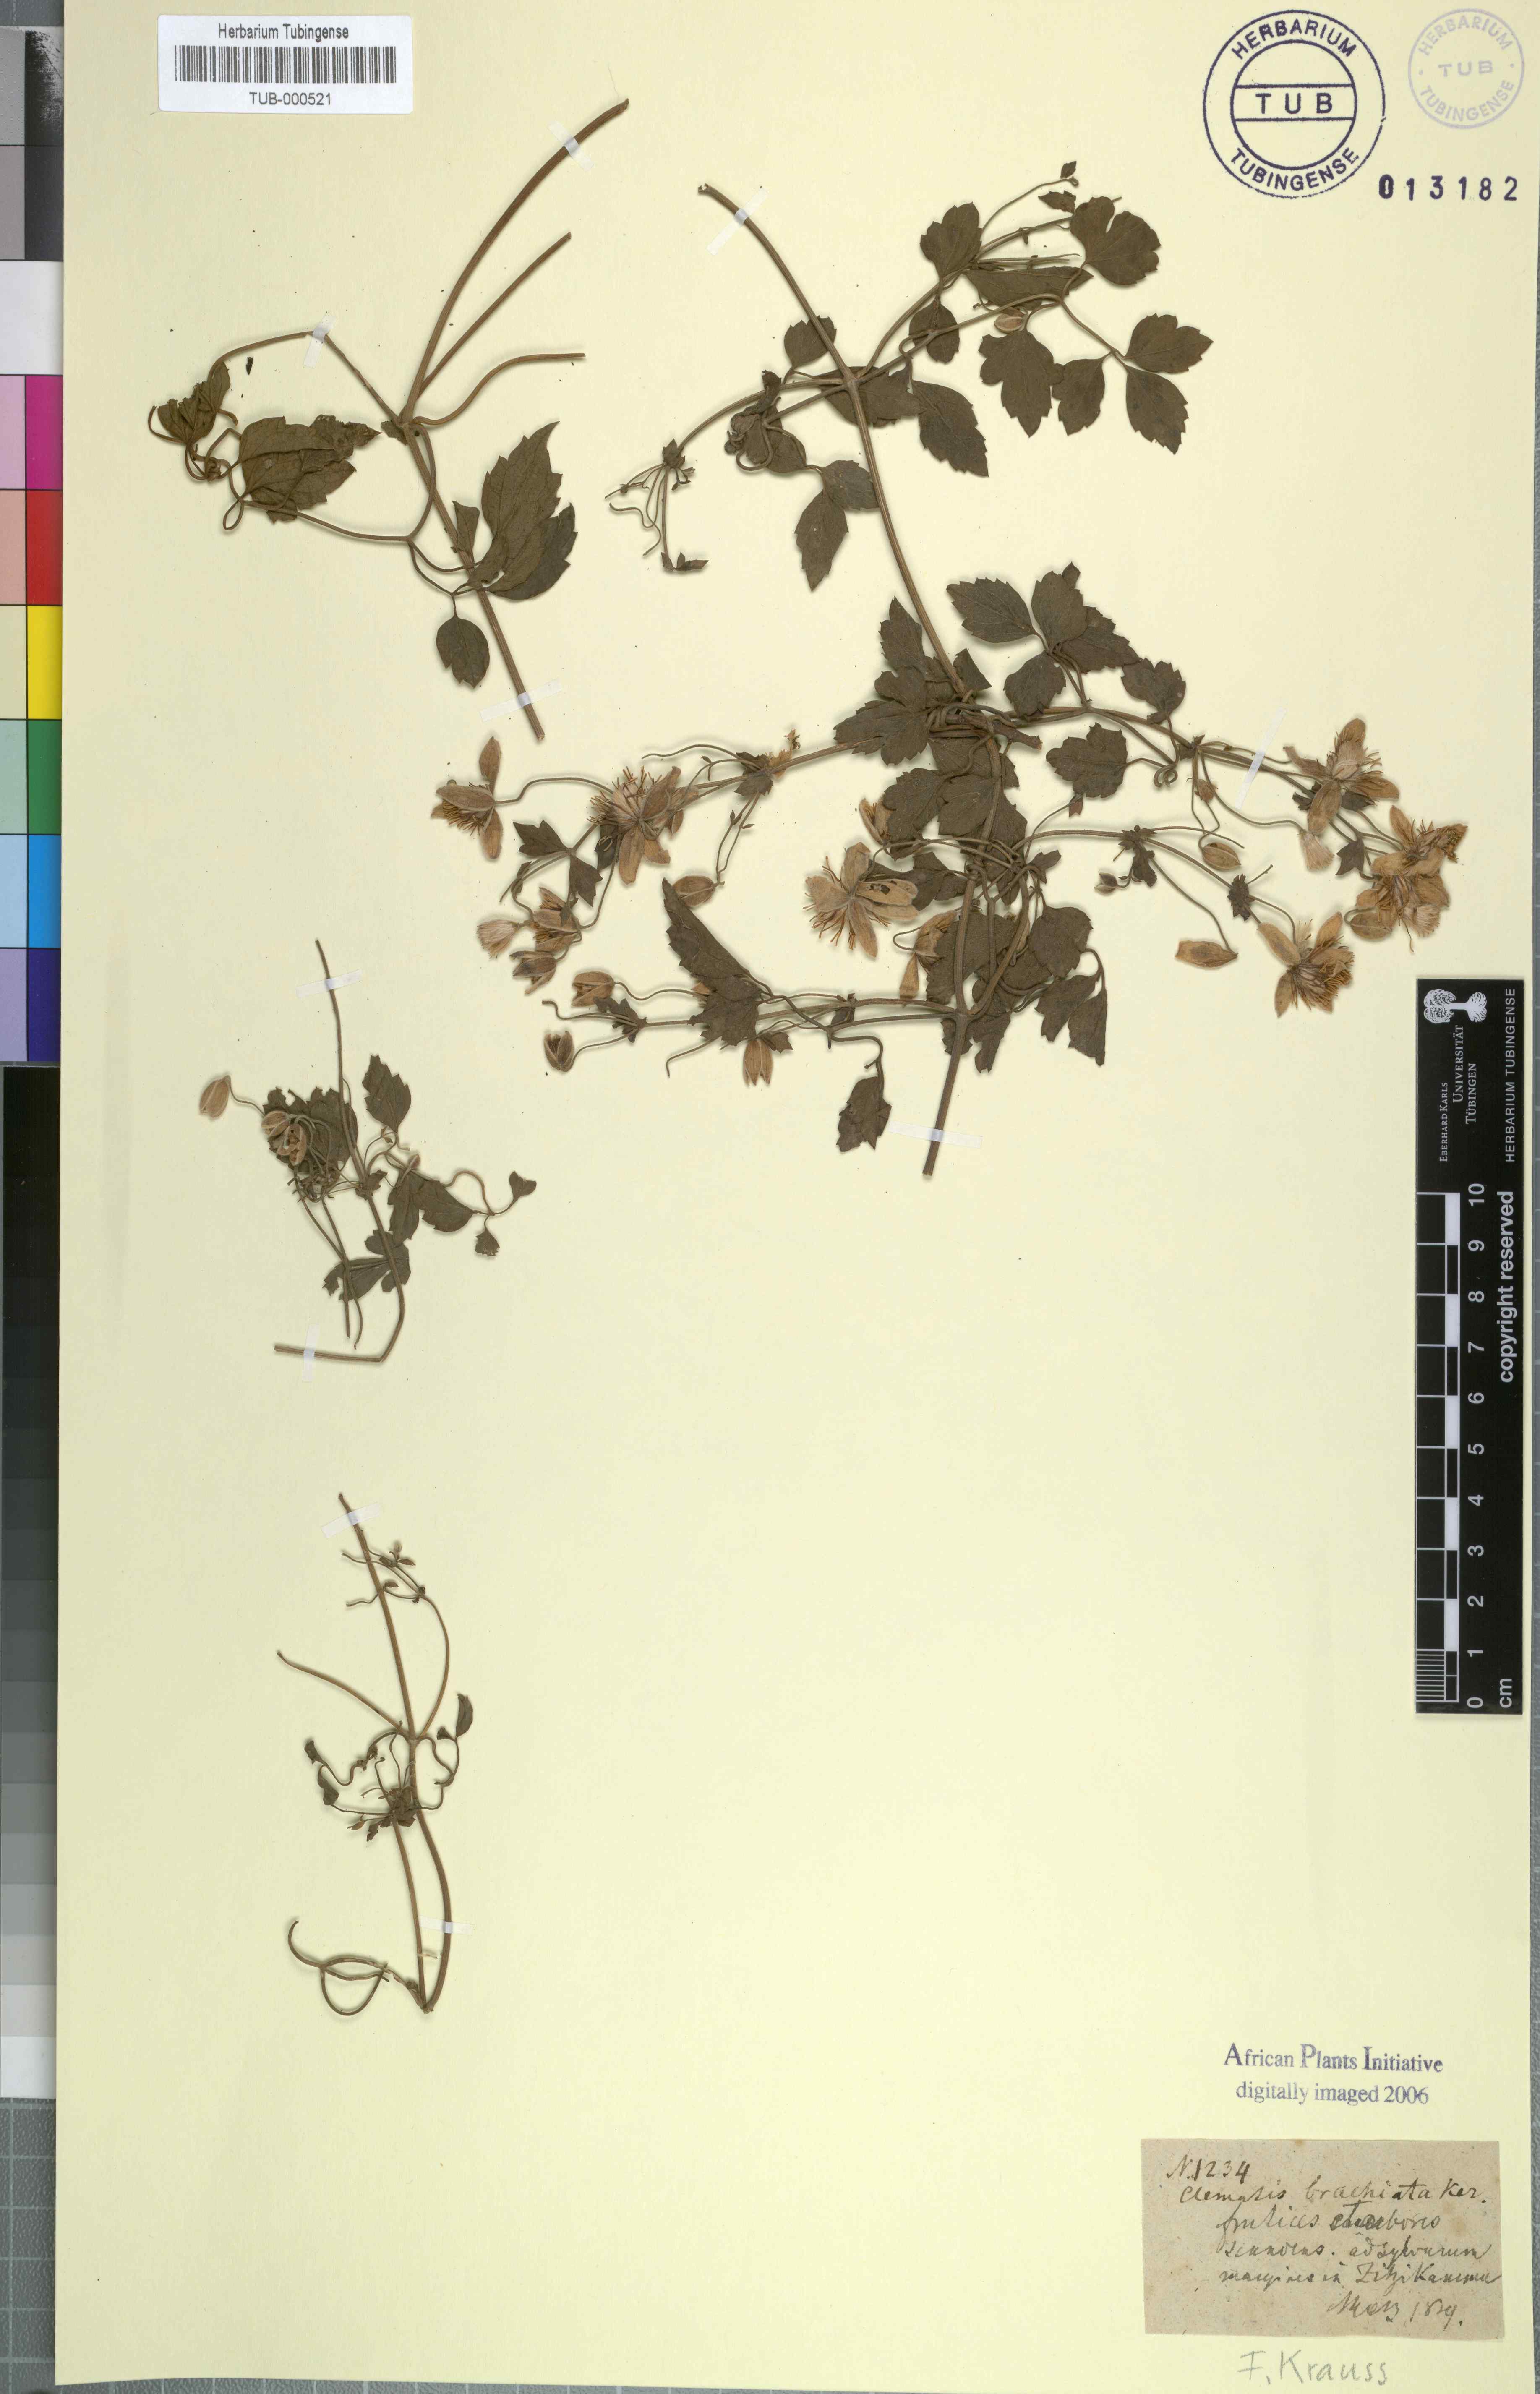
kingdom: Plantae
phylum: Tracheophyta
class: Magnoliopsida
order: Ranunculales
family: Ranunculaceae
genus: Clematis
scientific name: Clematis brachiata
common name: Traveler's-joy
